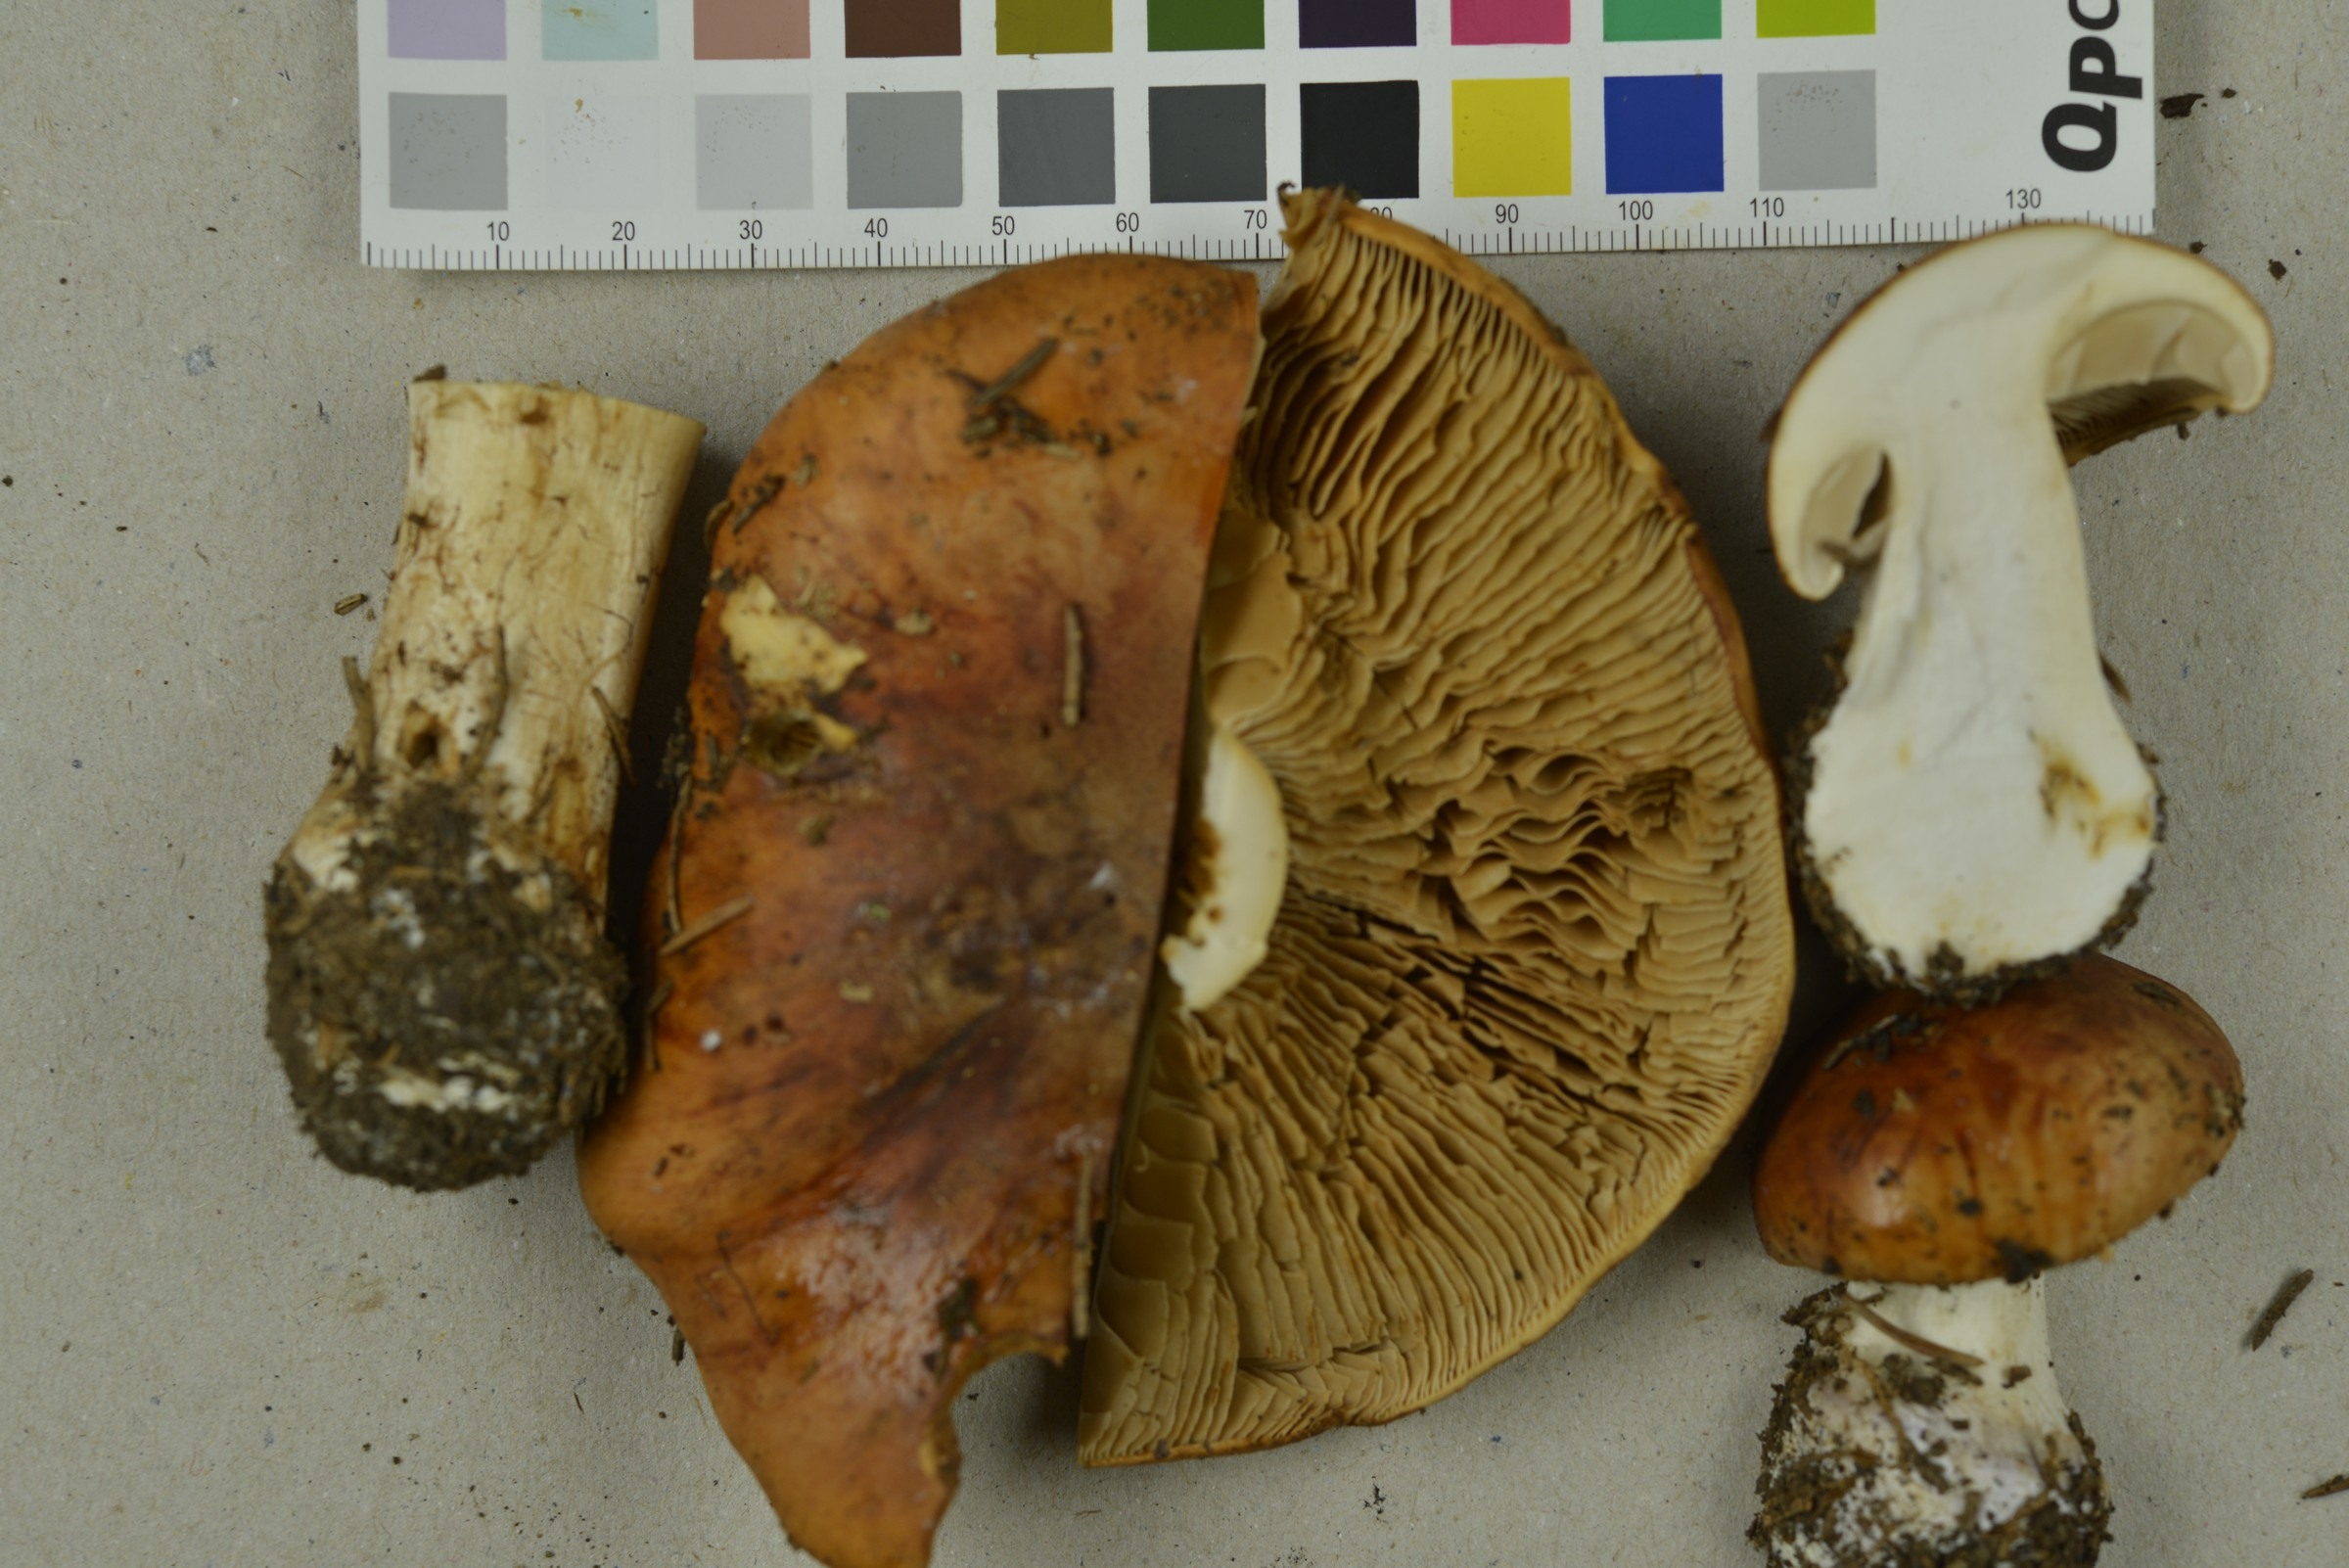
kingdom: Fungi
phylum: Basidiomycota
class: Agaricomycetes
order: Agaricales
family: Cortinariaceae
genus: Calonarius
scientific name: Calonarius napus
